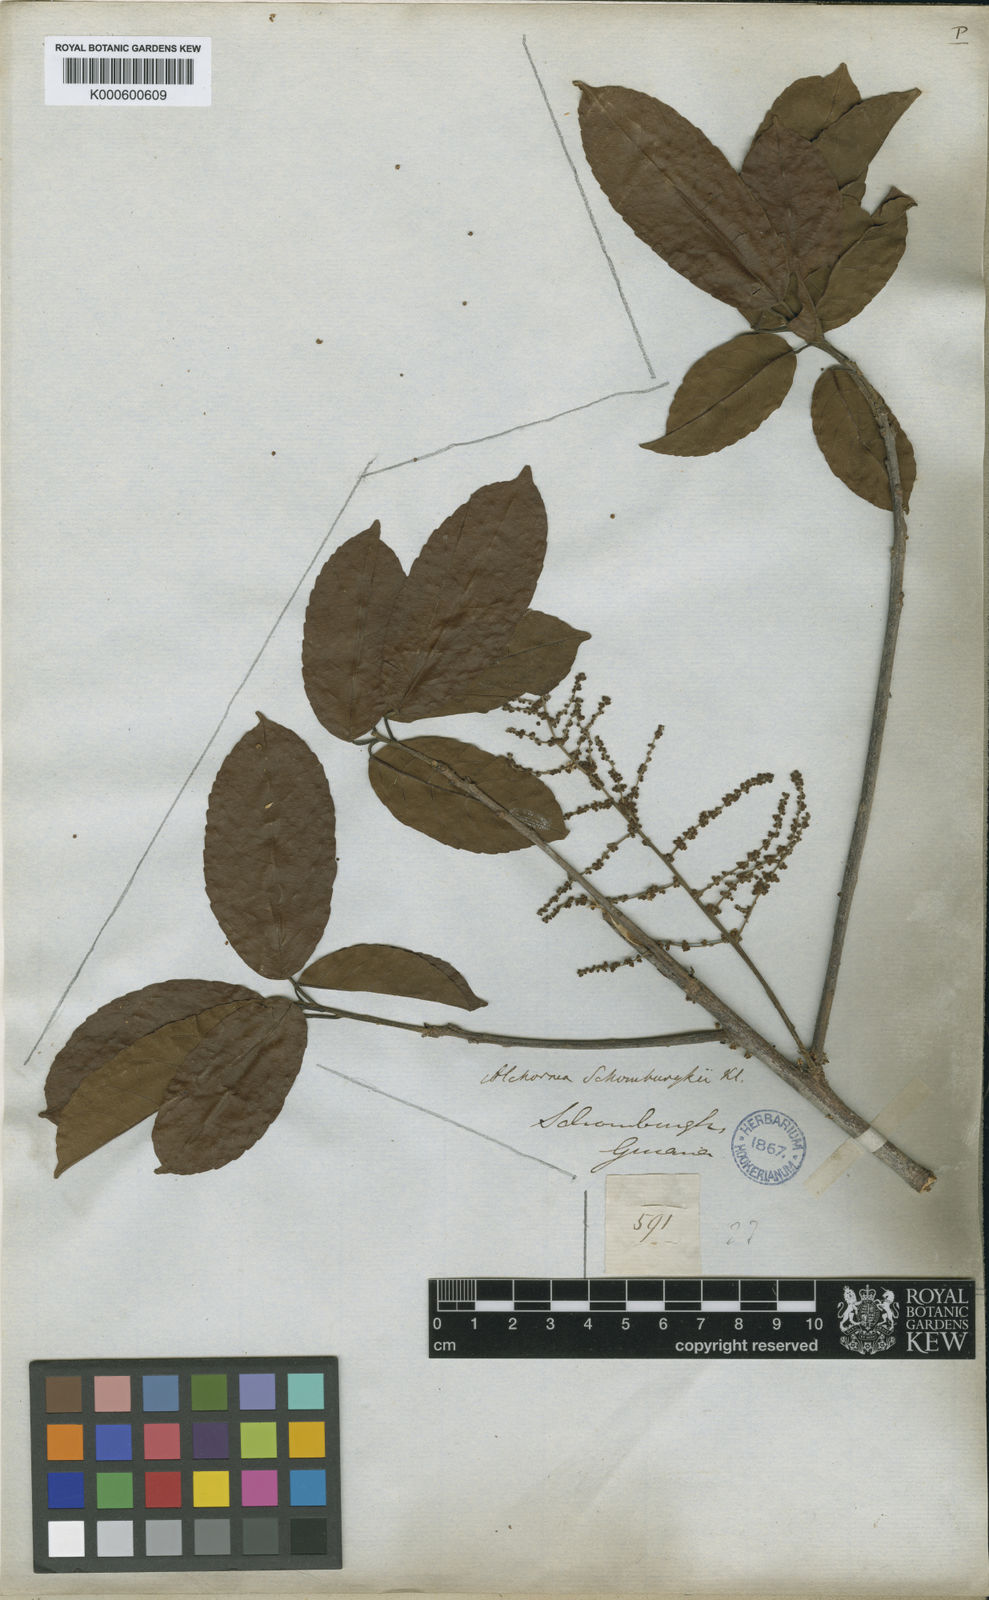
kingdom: Plantae
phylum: Tracheophyta
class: Magnoliopsida
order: Malpighiales
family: Euphorbiaceae
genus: Alchornea
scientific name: Alchornea discolor
